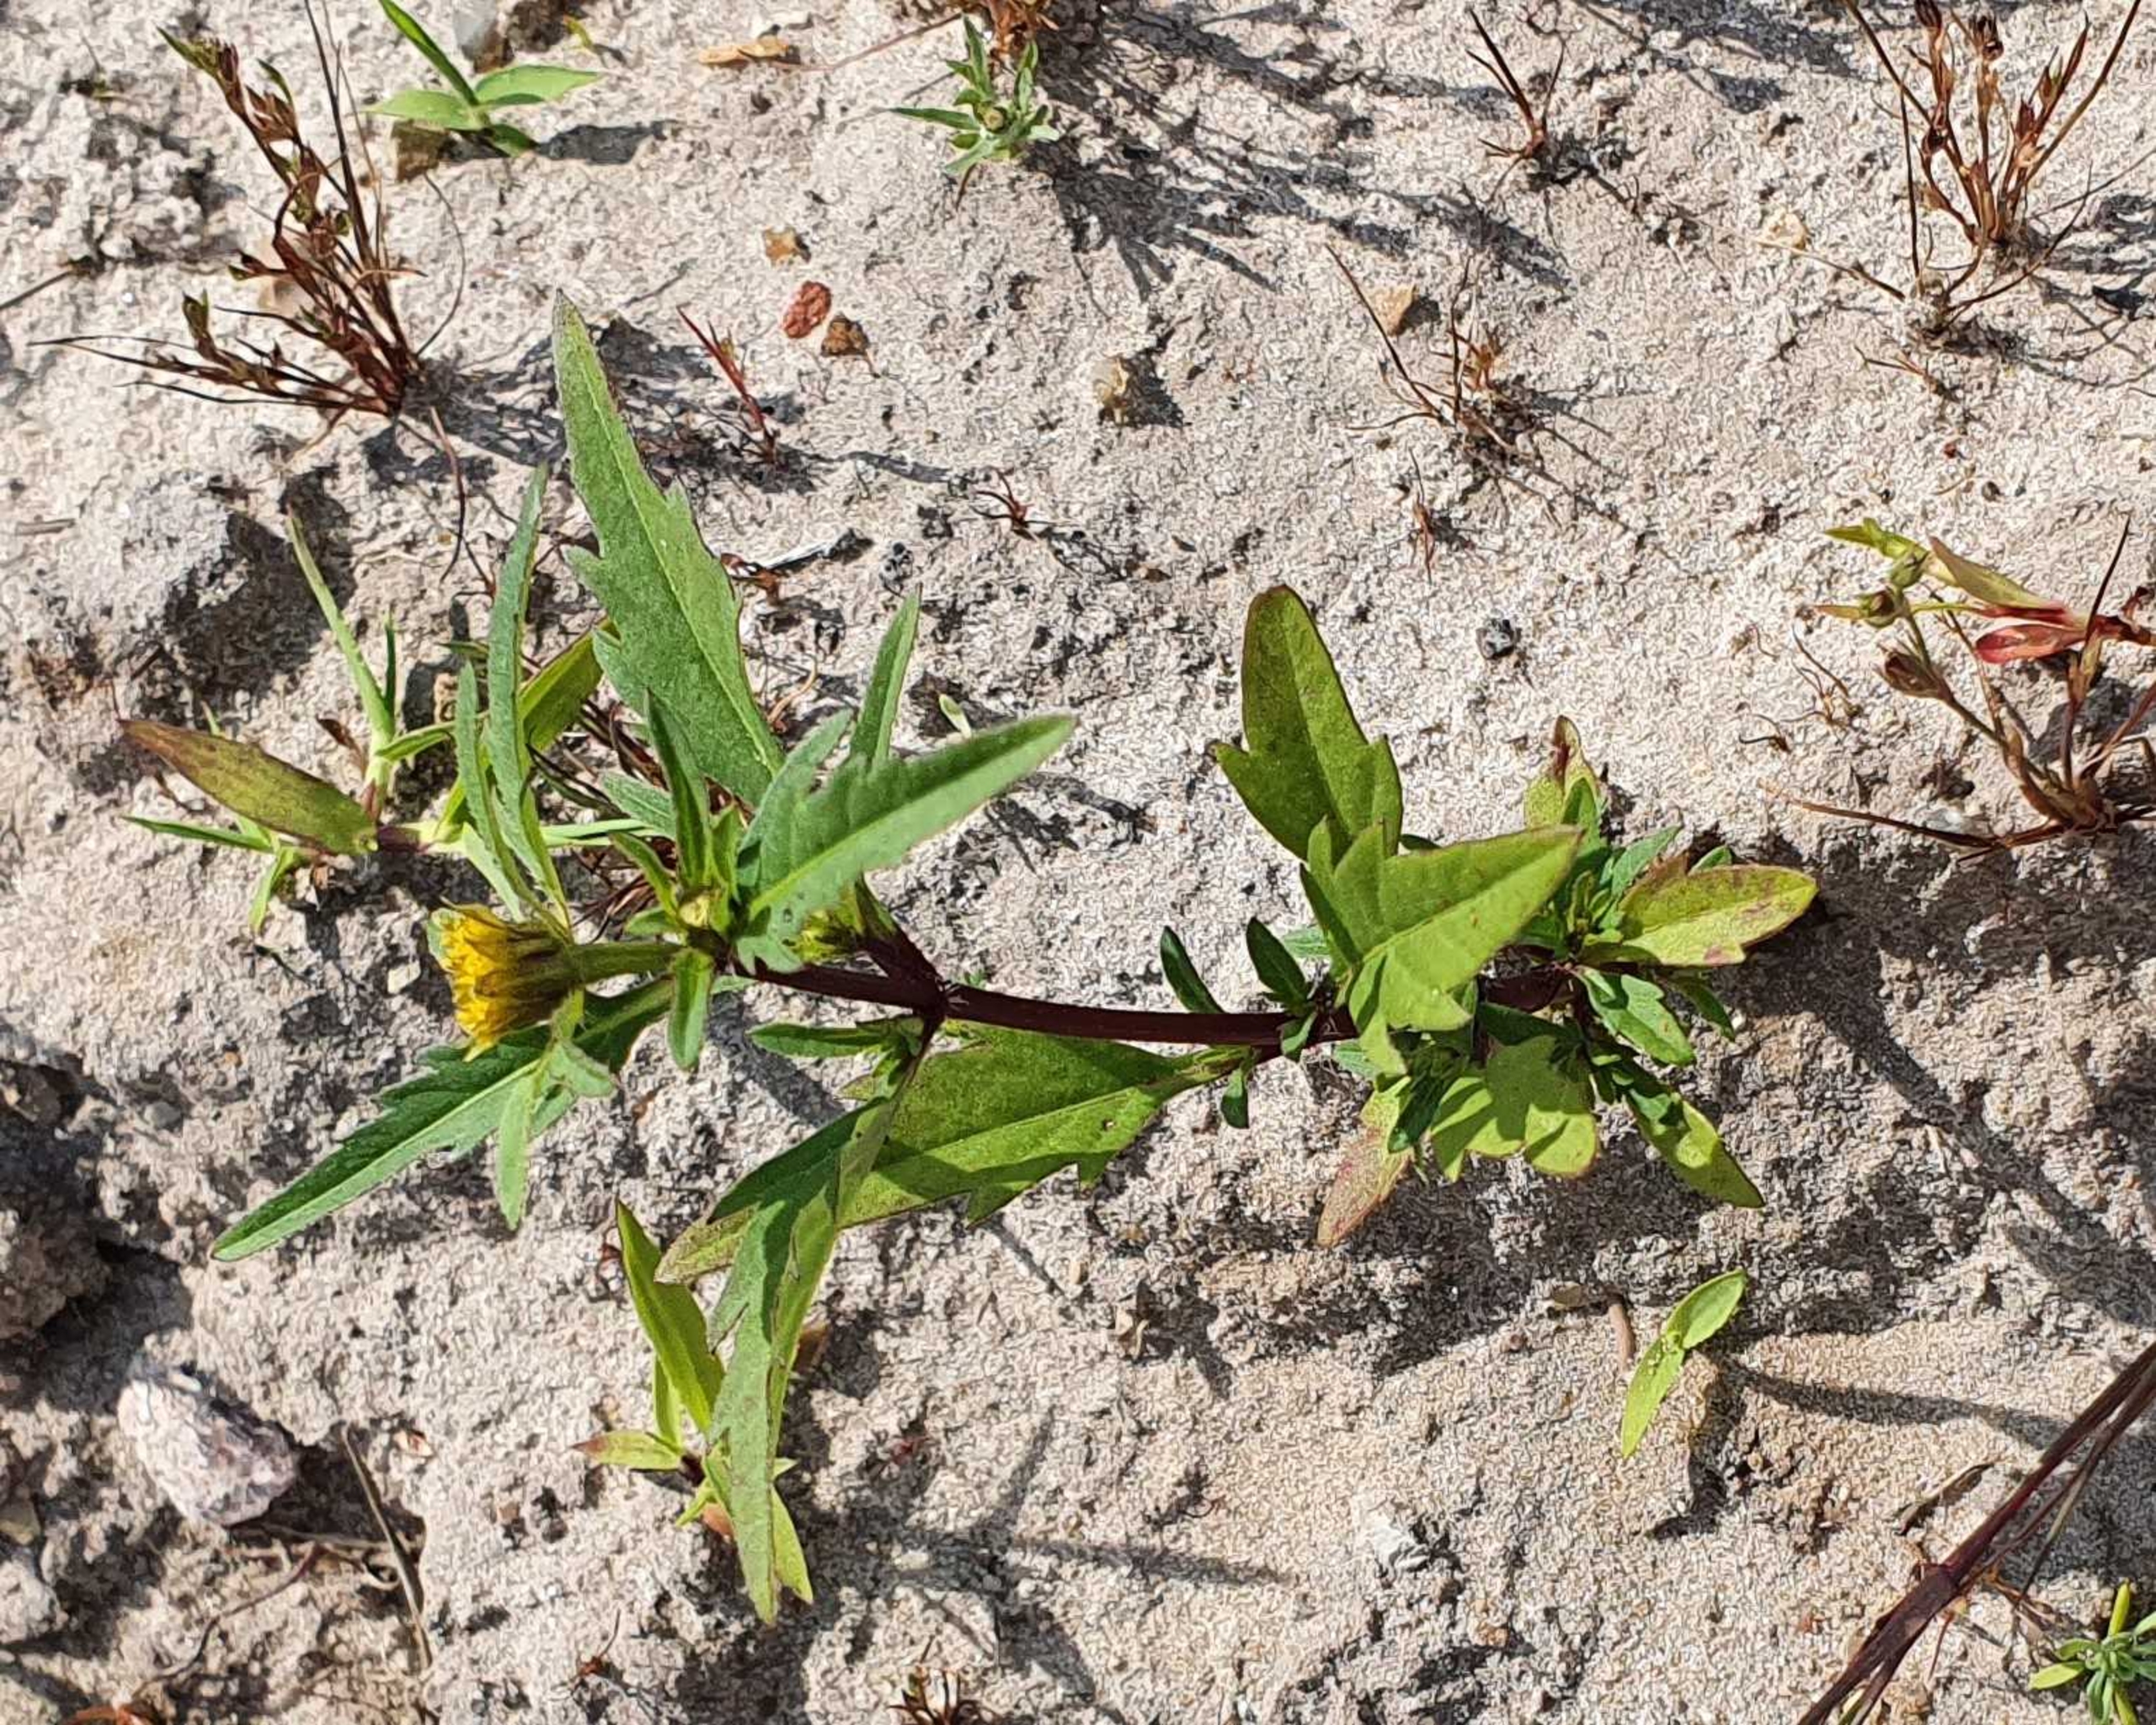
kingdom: Plantae
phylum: Tracheophyta
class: Magnoliopsida
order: Asterales
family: Asteraceae
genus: Bidens
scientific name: Bidens tripartita
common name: Fliget brøndsel
